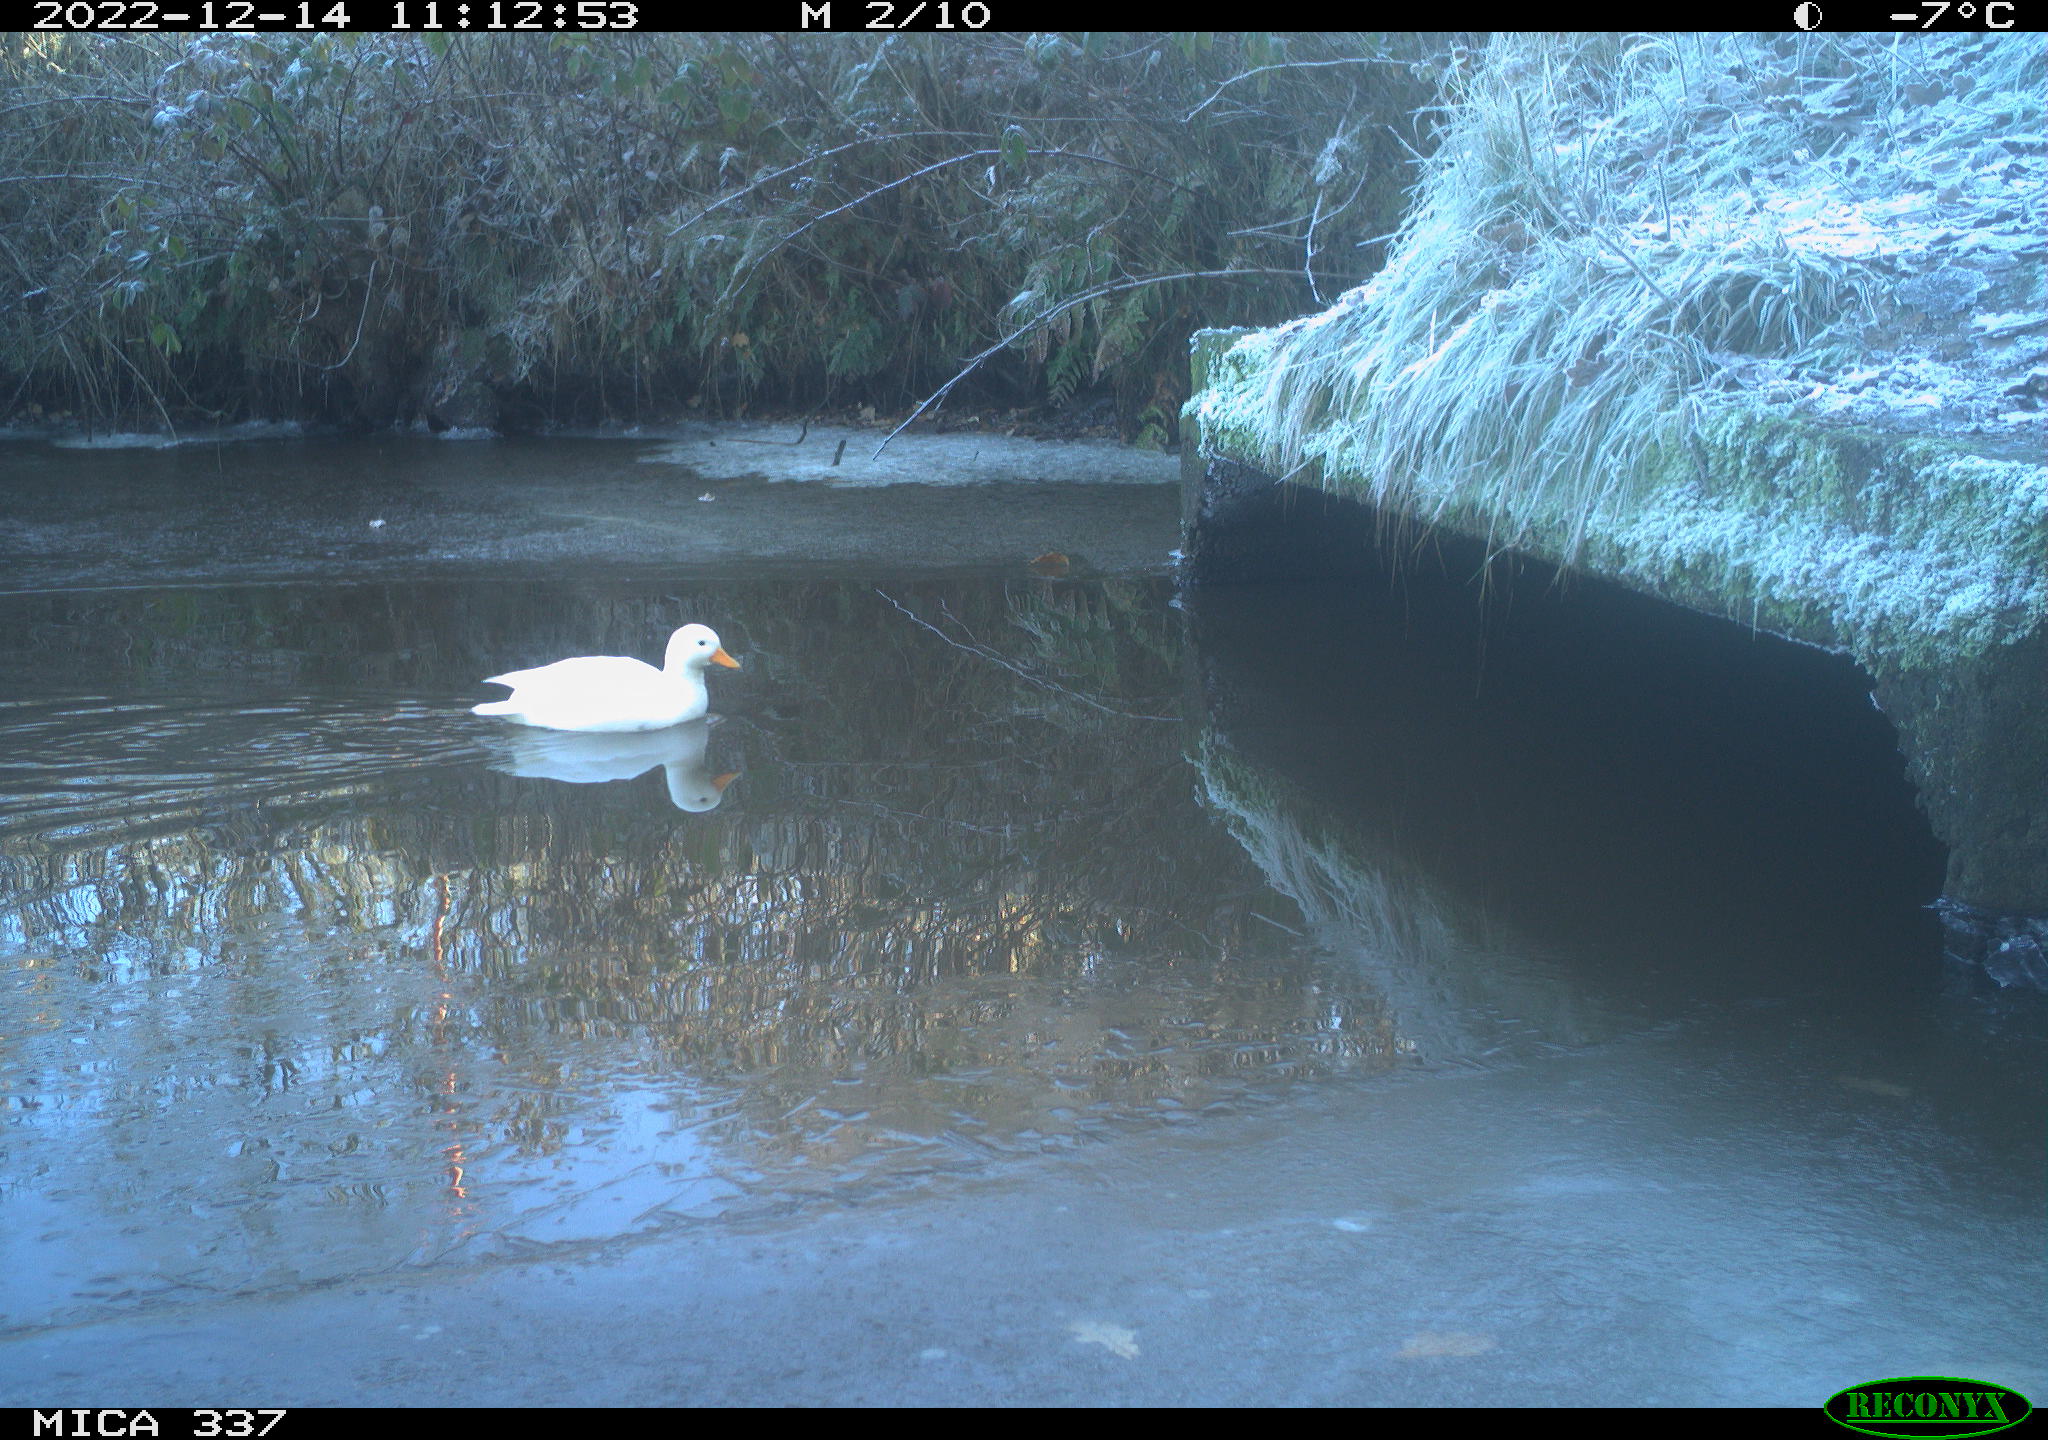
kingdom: Animalia
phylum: Chordata
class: Aves
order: Anseriformes
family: Anatidae
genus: Anas
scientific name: Anas
